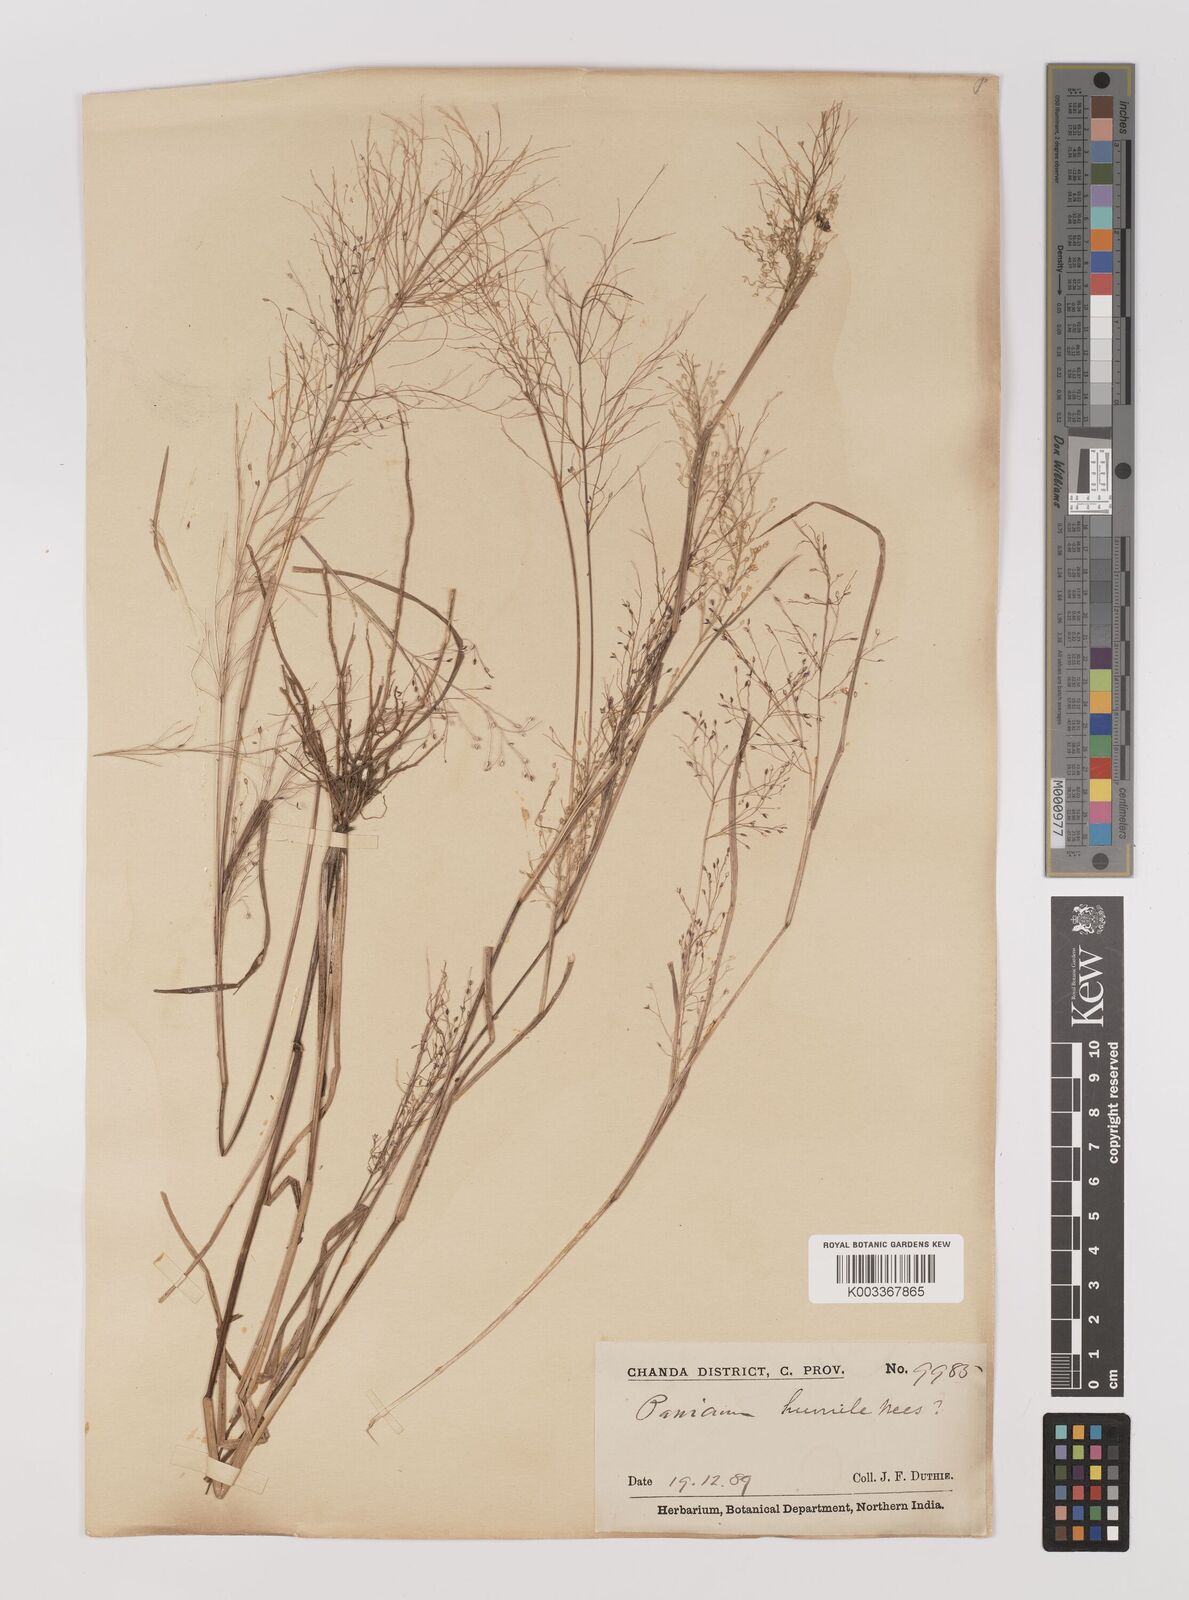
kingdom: Plantae
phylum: Tracheophyta
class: Liliopsida
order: Poales
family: Poaceae
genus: Panicum
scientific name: Panicum humile
